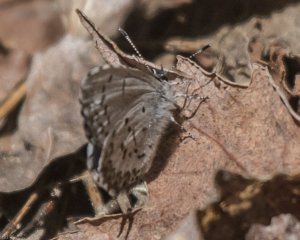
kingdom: Animalia
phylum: Arthropoda
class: Insecta
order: Lepidoptera
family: Lycaenidae
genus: Celastrina
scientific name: Celastrina lucia
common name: Northern Spring Azure
